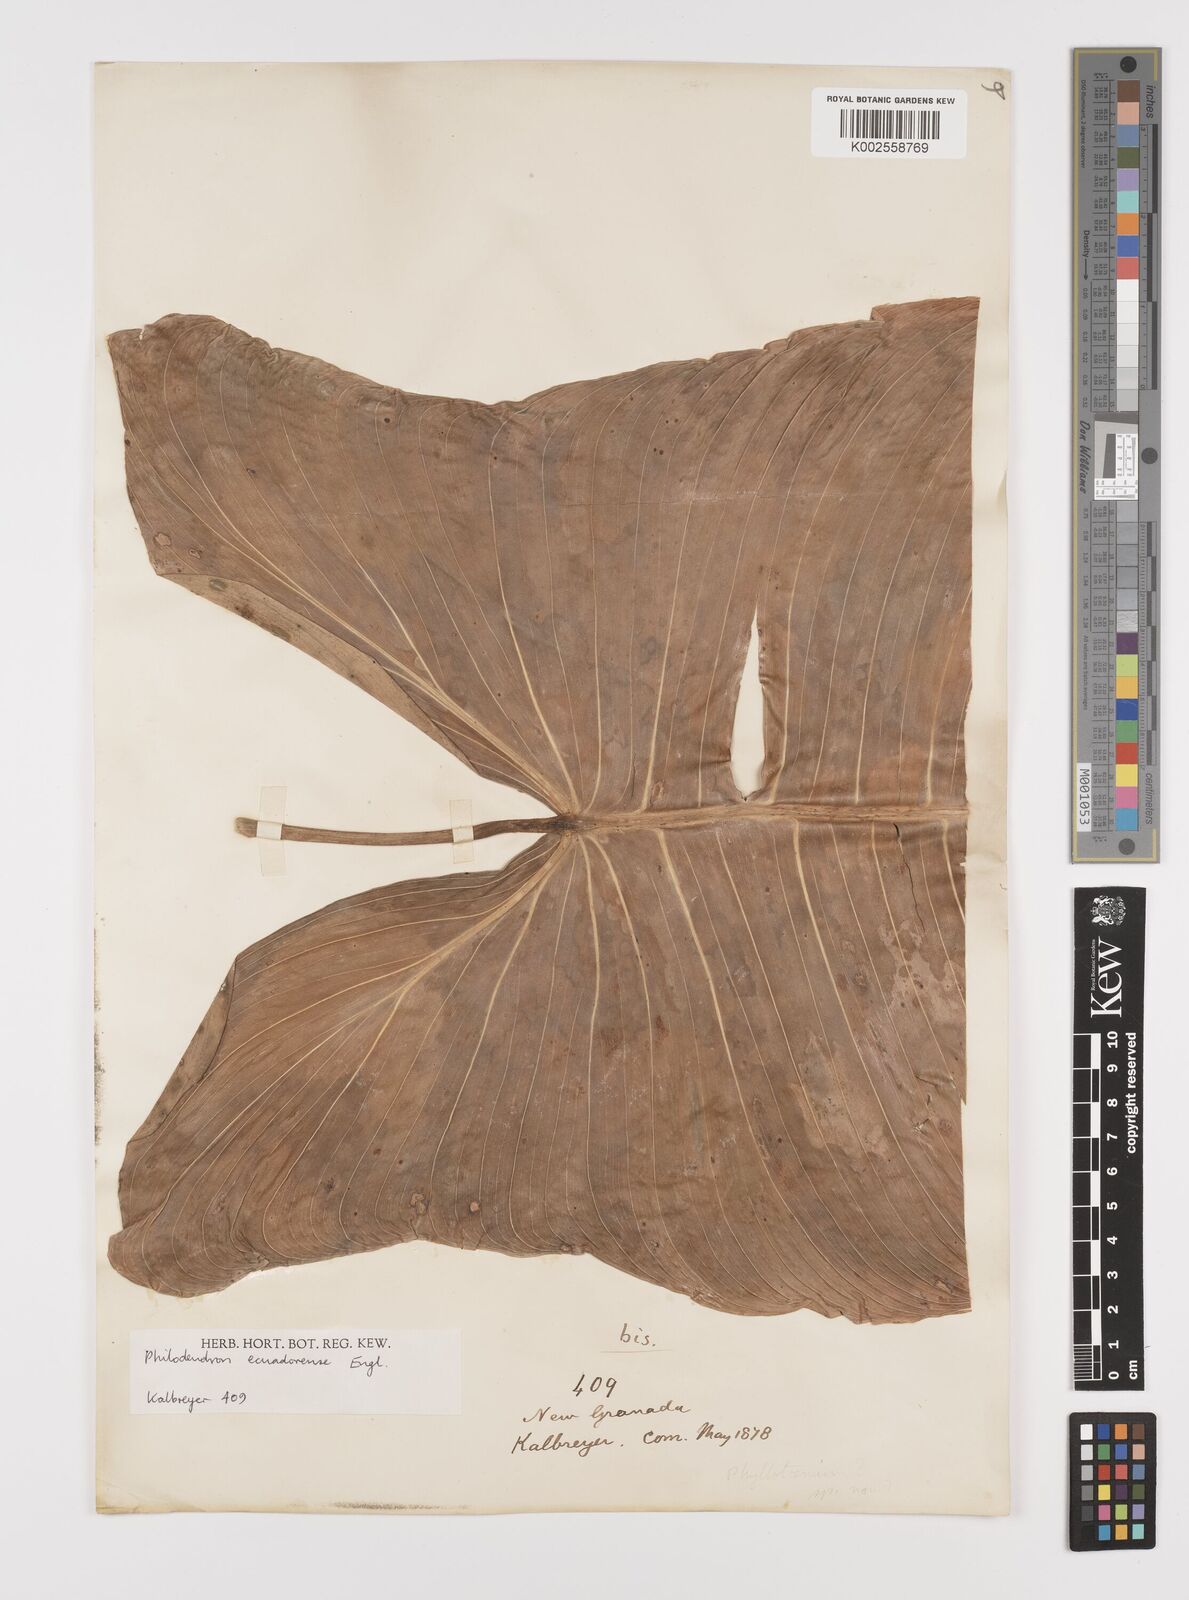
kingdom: Plantae
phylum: Tracheophyta
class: Liliopsida
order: Alismatales
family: Araceae
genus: Philodendron
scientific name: Philodendron tenue
